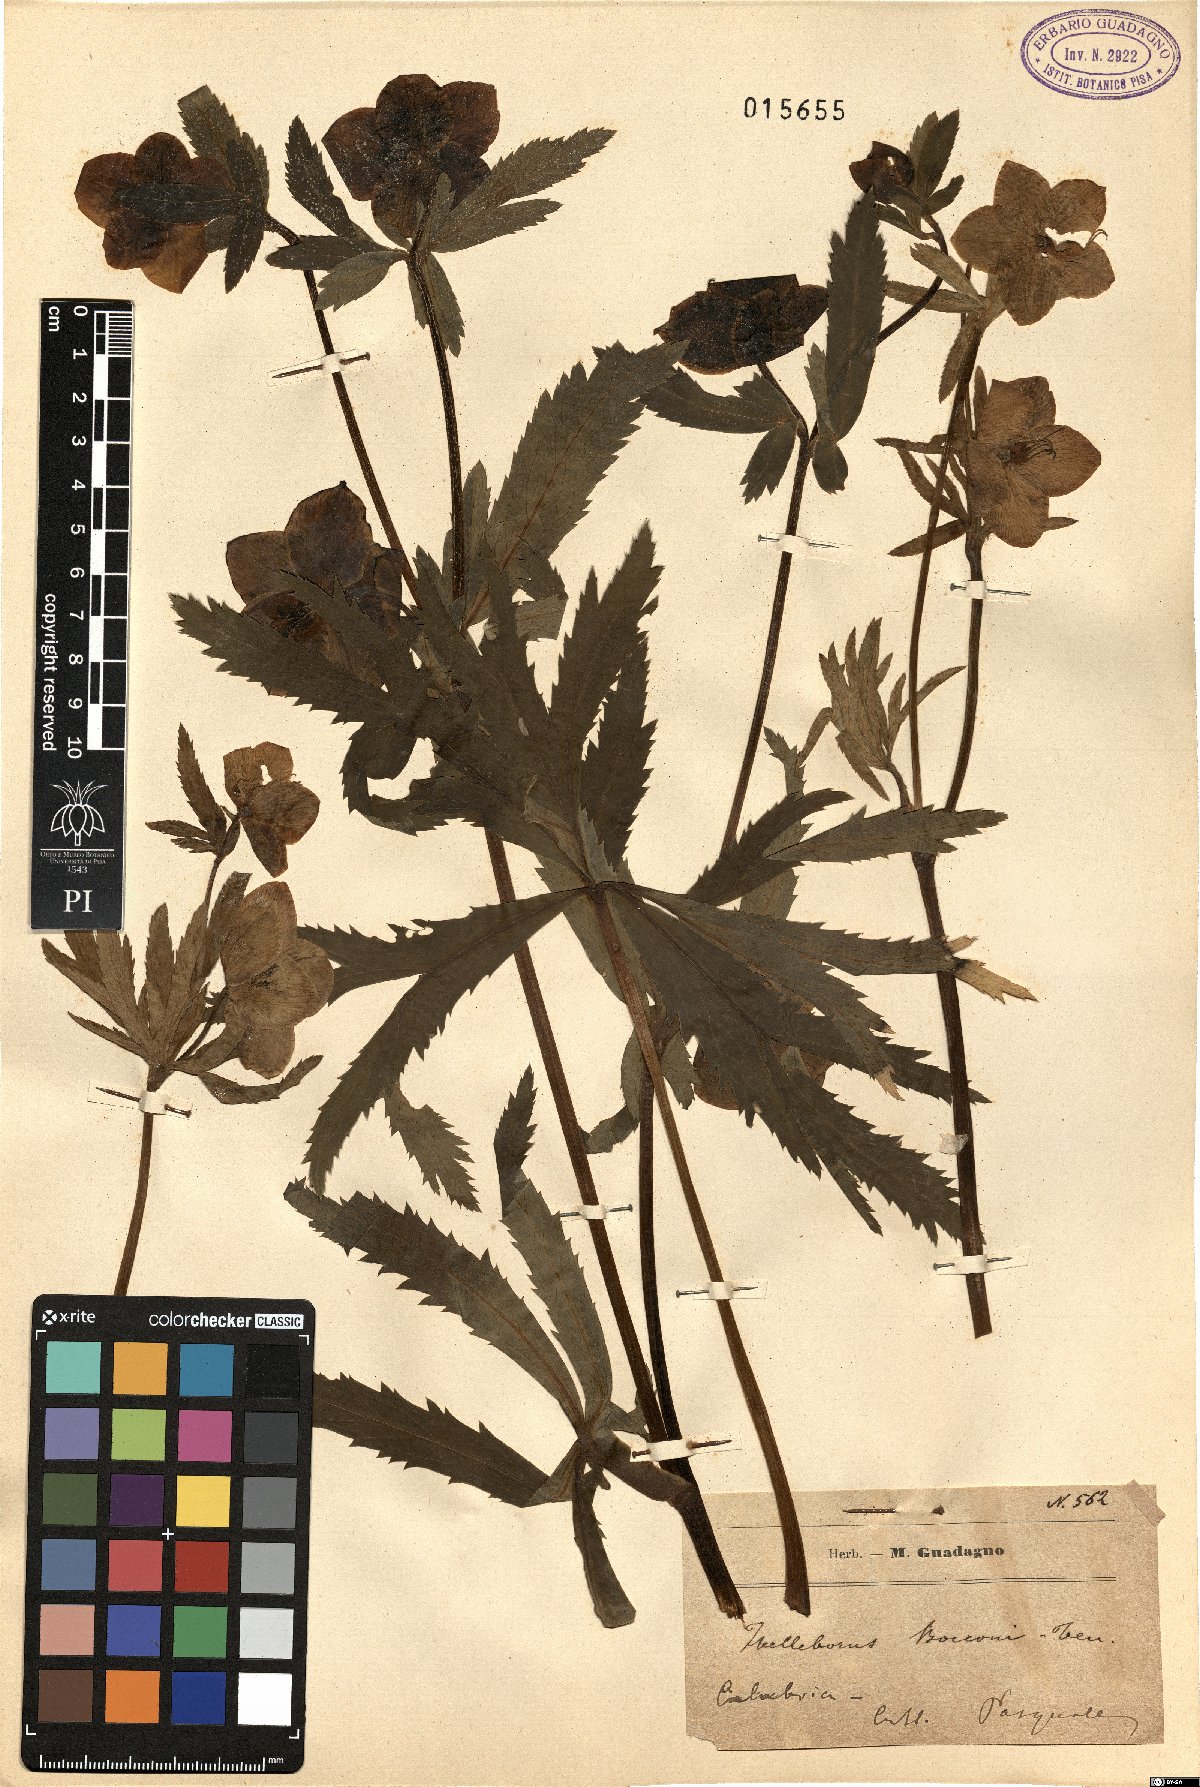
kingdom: Plantae
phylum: Tracheophyta
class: Magnoliopsida
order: Ranunculales
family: Ranunculaceae
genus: Helleborus
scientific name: Helleborus bocconei
